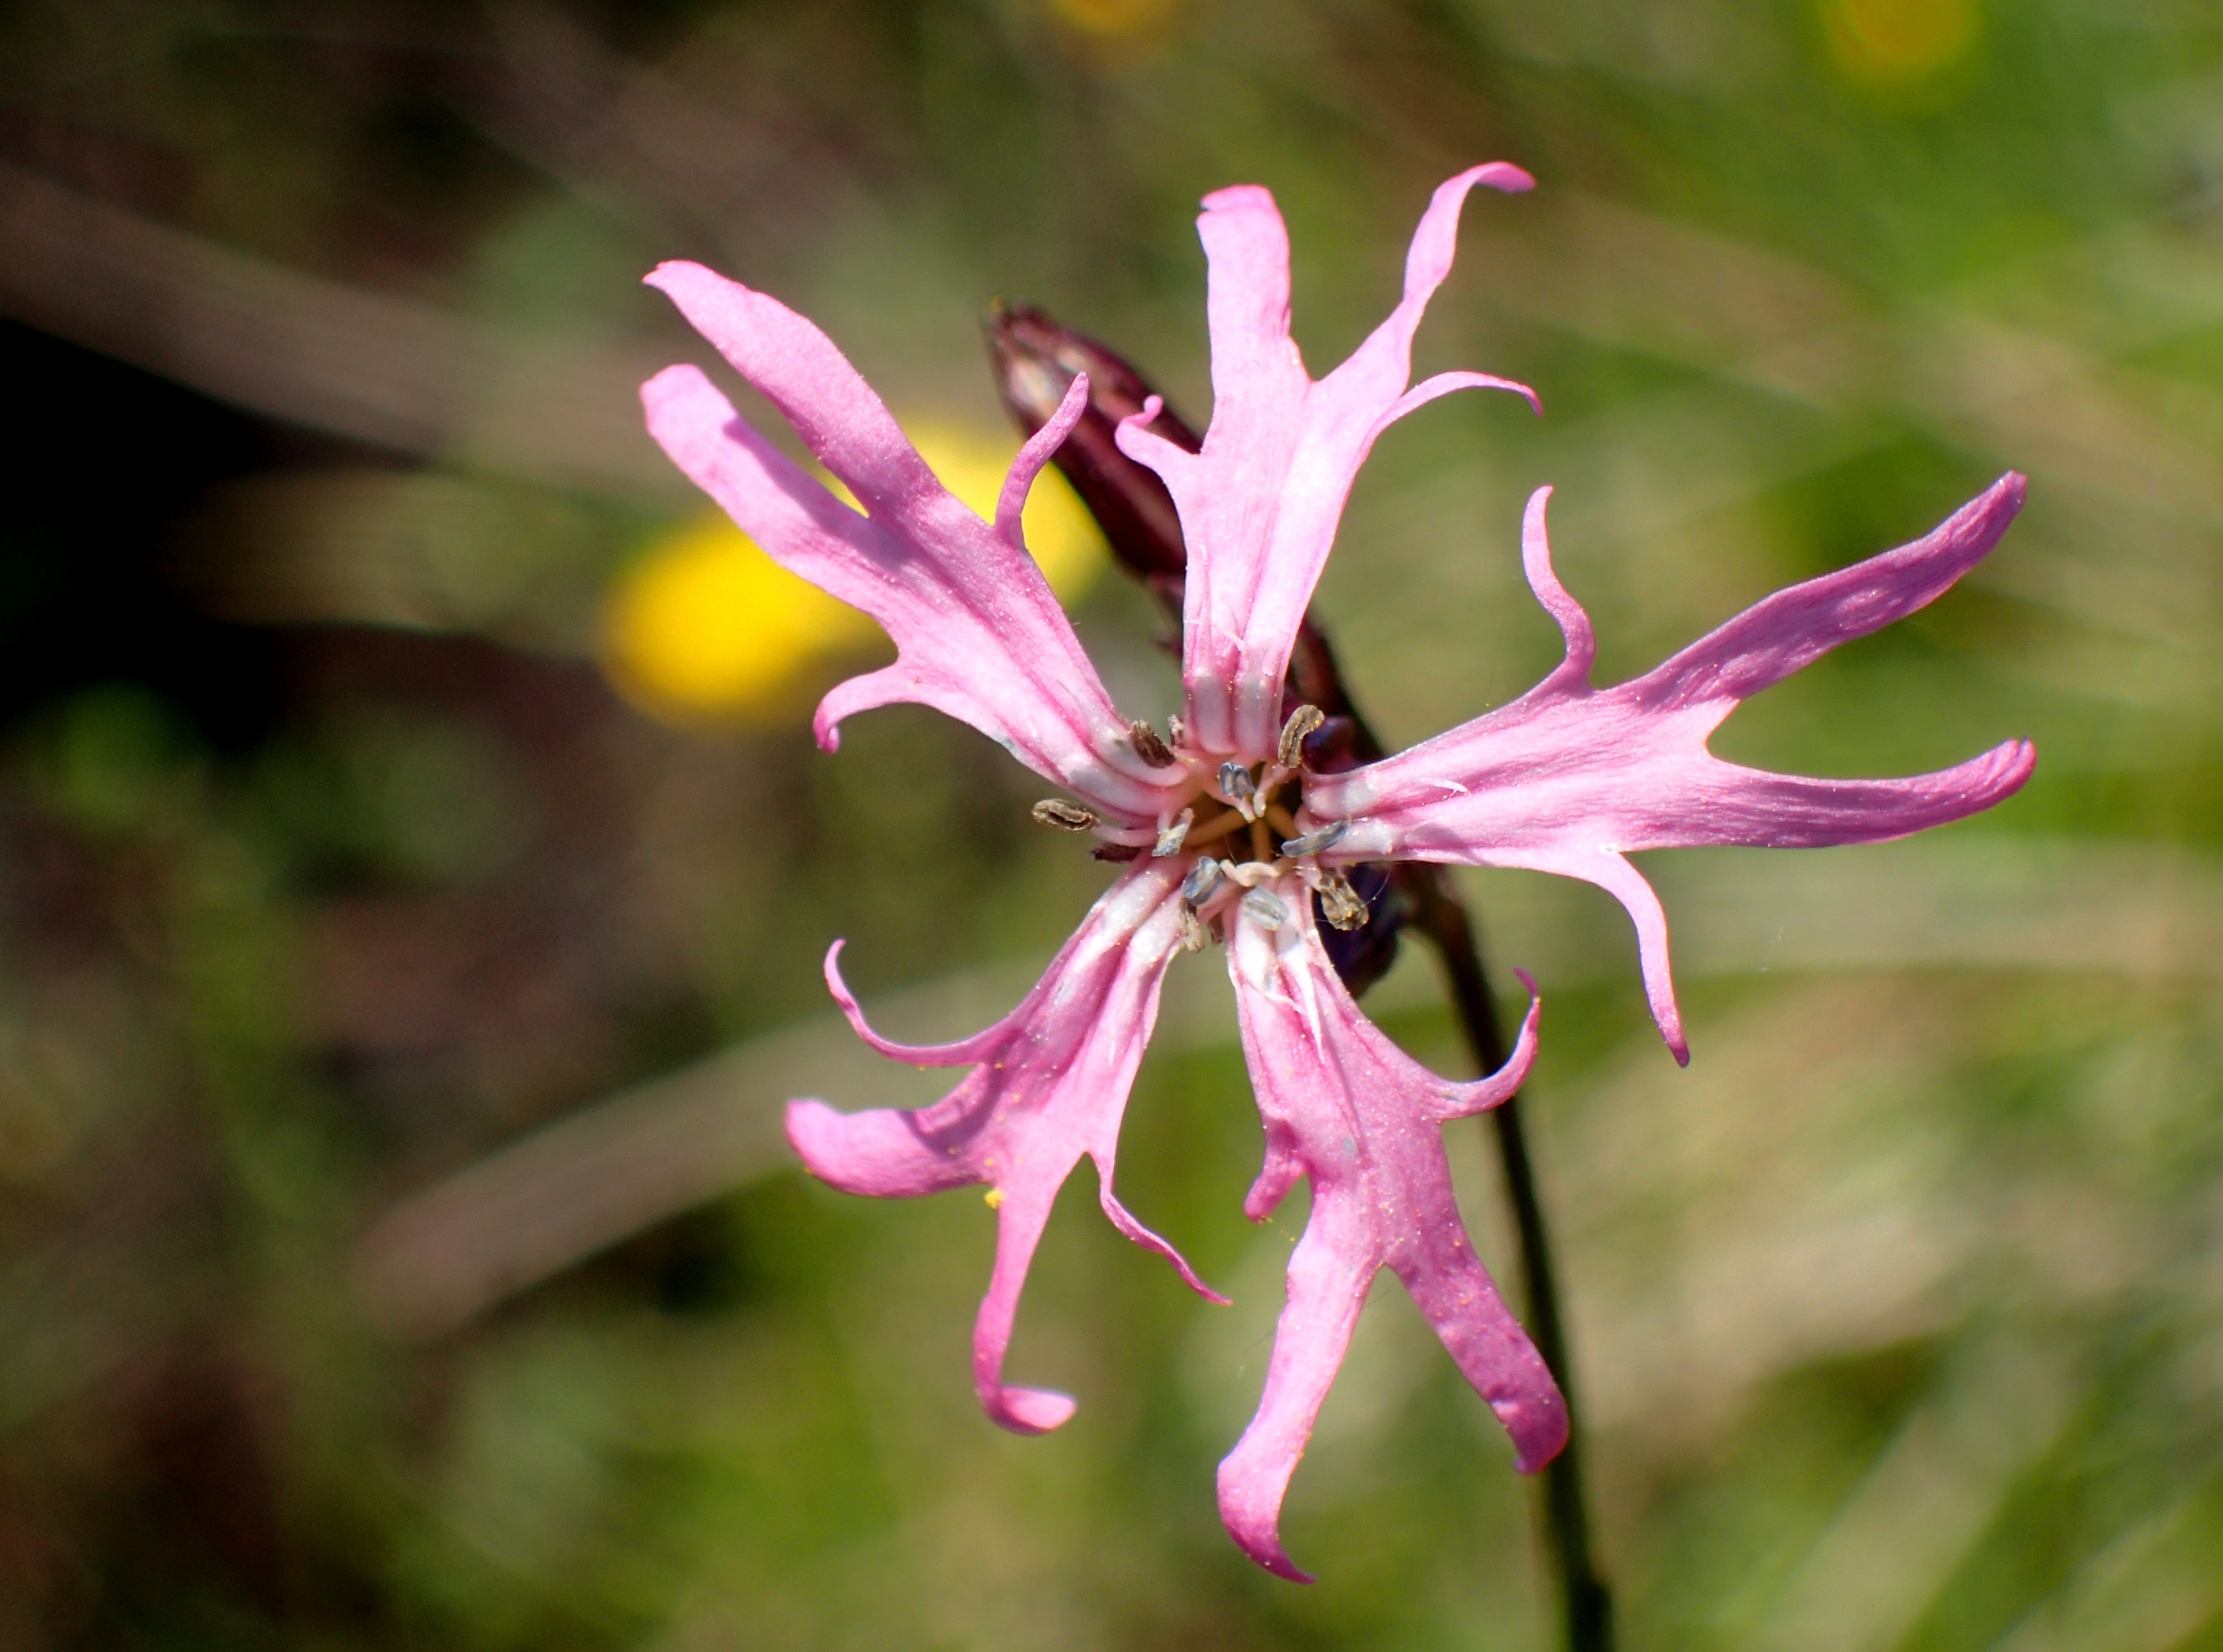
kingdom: Plantae
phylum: Tracheophyta
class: Magnoliopsida
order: Caryophyllales
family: Caryophyllaceae
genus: Silene
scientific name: Silene flos-cuculi
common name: Trævlekrone
